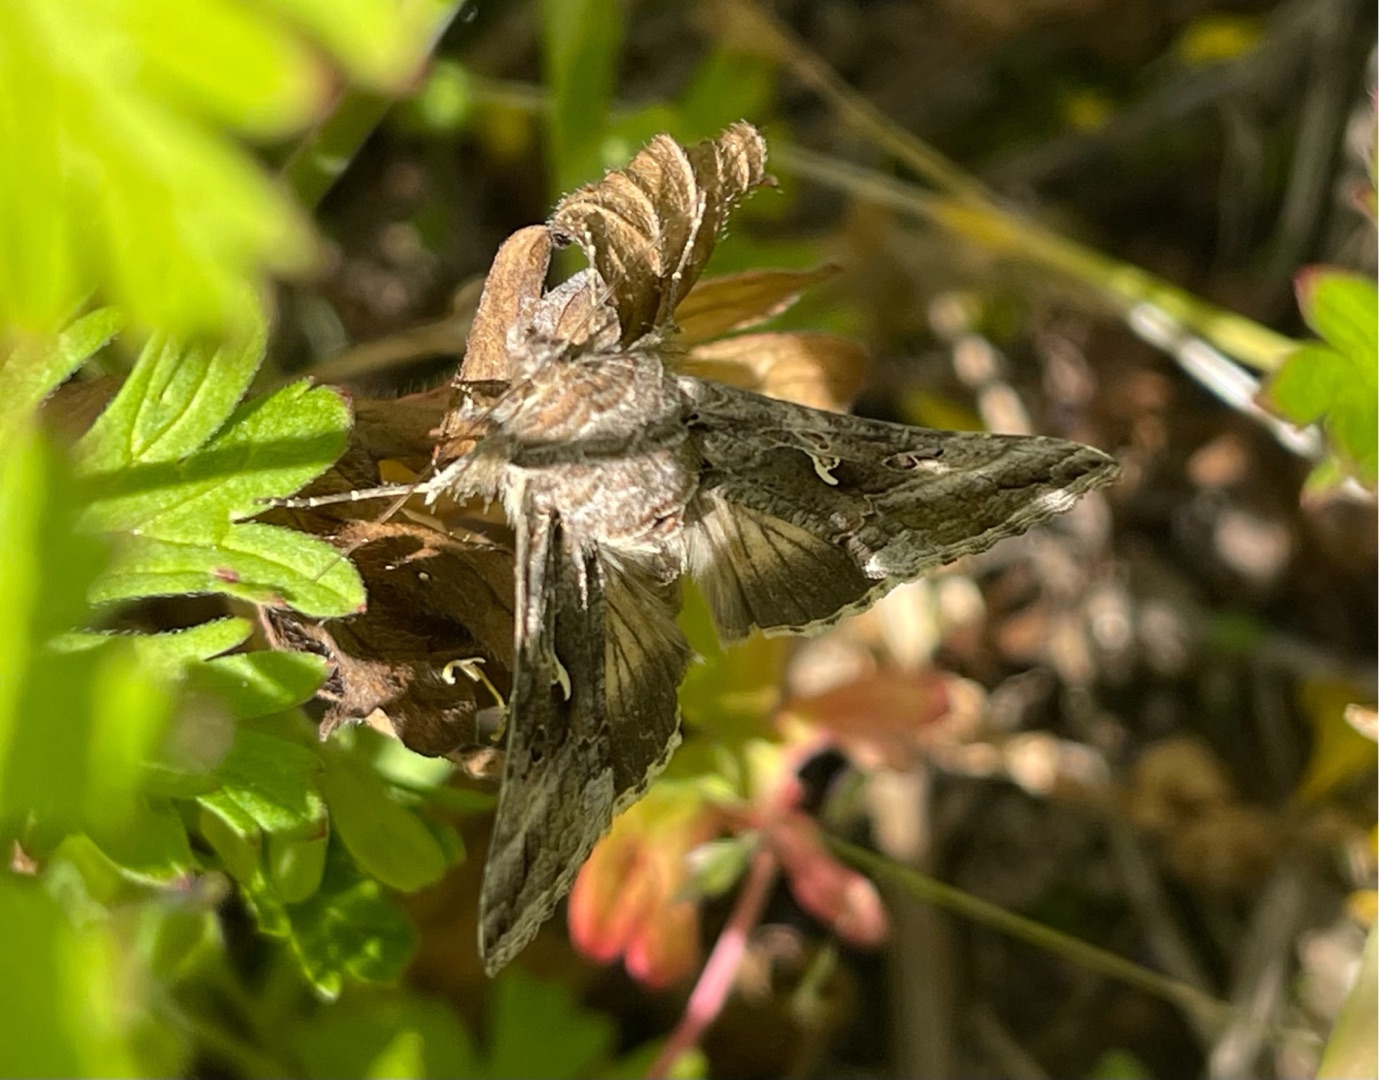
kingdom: Animalia
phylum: Arthropoda
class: Insecta
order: Lepidoptera
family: Noctuidae
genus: Autographa
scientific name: Autographa gamma
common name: Gammaugle
